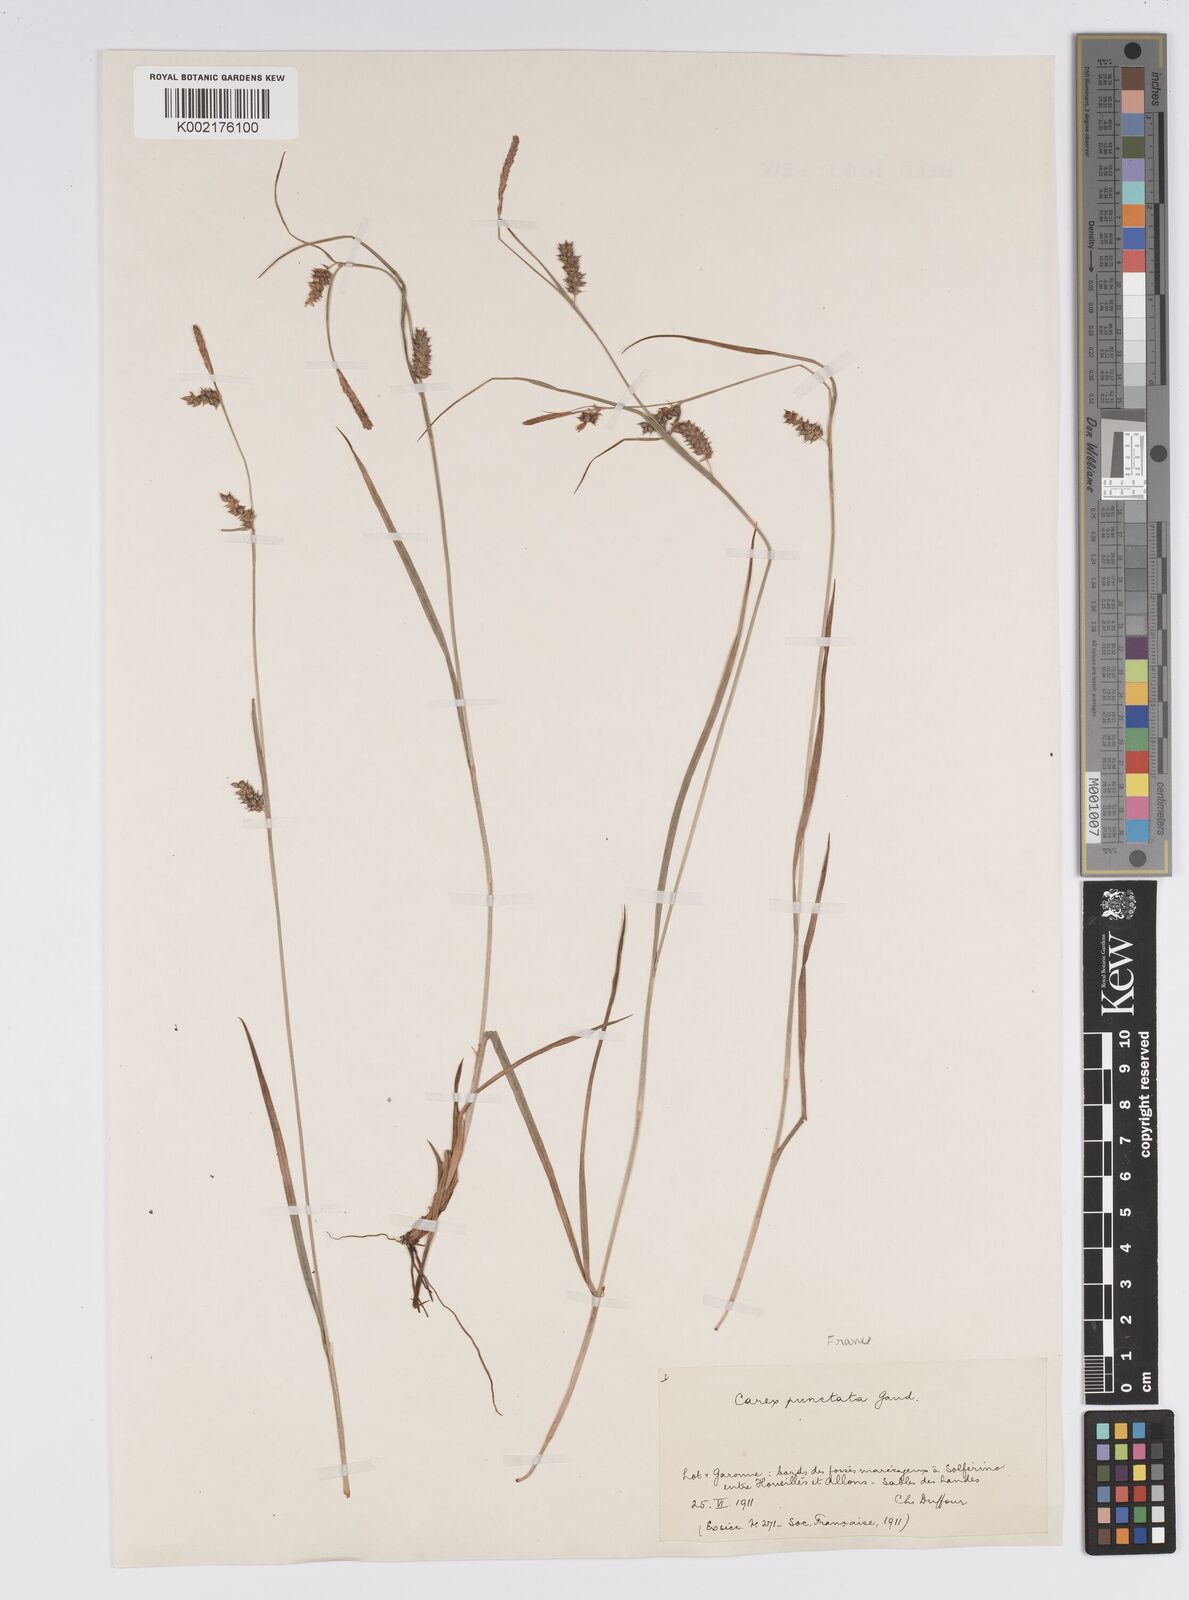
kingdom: Plantae
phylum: Tracheophyta
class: Liliopsida
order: Poales
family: Cyperaceae
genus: Carex
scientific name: Carex punctata
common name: Dotted sedge
